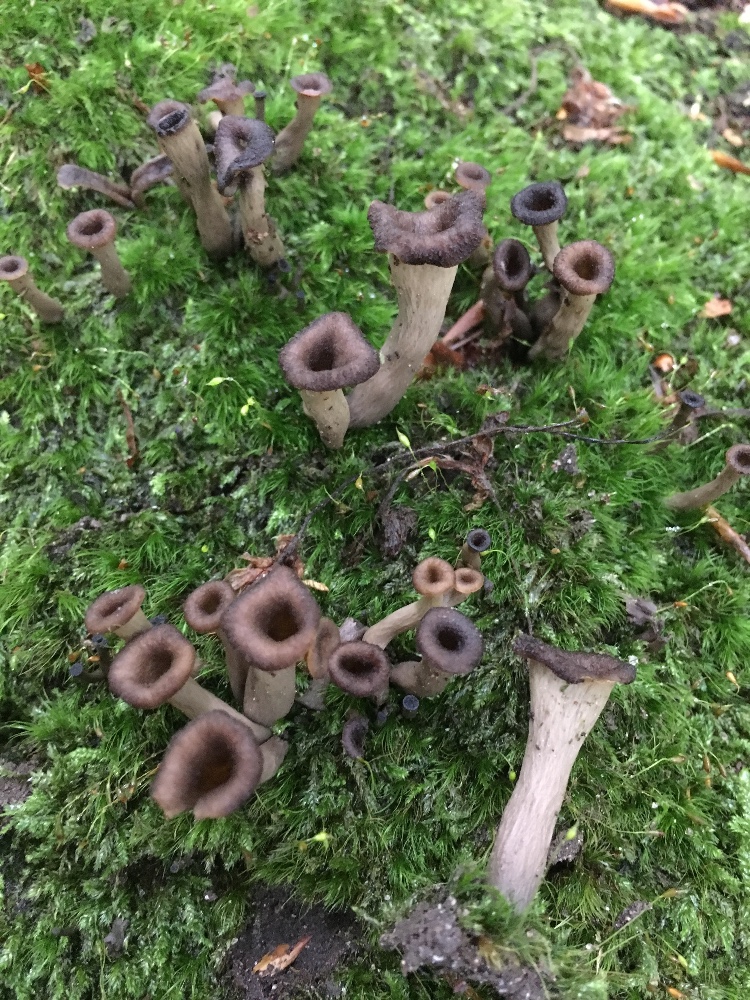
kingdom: Fungi
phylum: Basidiomycota
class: Agaricomycetes
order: Cantharellales
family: Hydnaceae
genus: Craterellus
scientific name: Craterellus cornucopioides
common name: trompetsvamp
